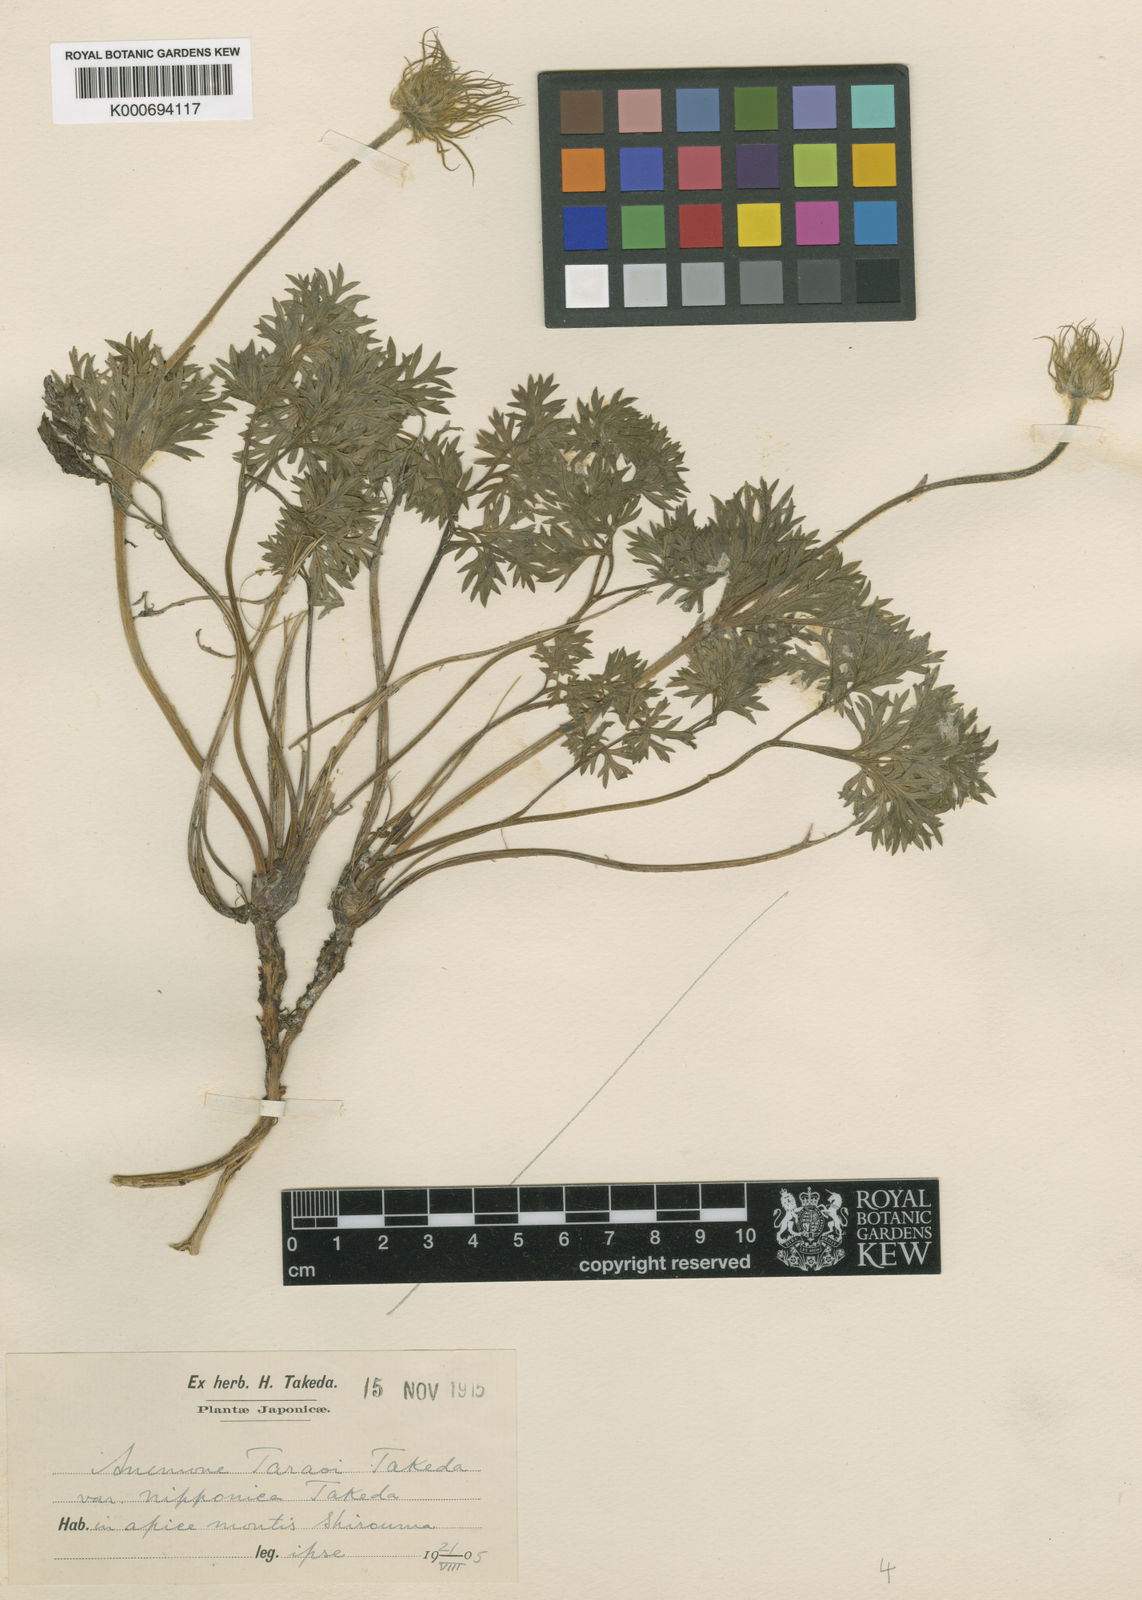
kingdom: Plantae
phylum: Tracheophyta
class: Magnoliopsida
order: Ranunculales
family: Ranunculaceae
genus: Pulsatilla
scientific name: Pulsatilla taraoi
